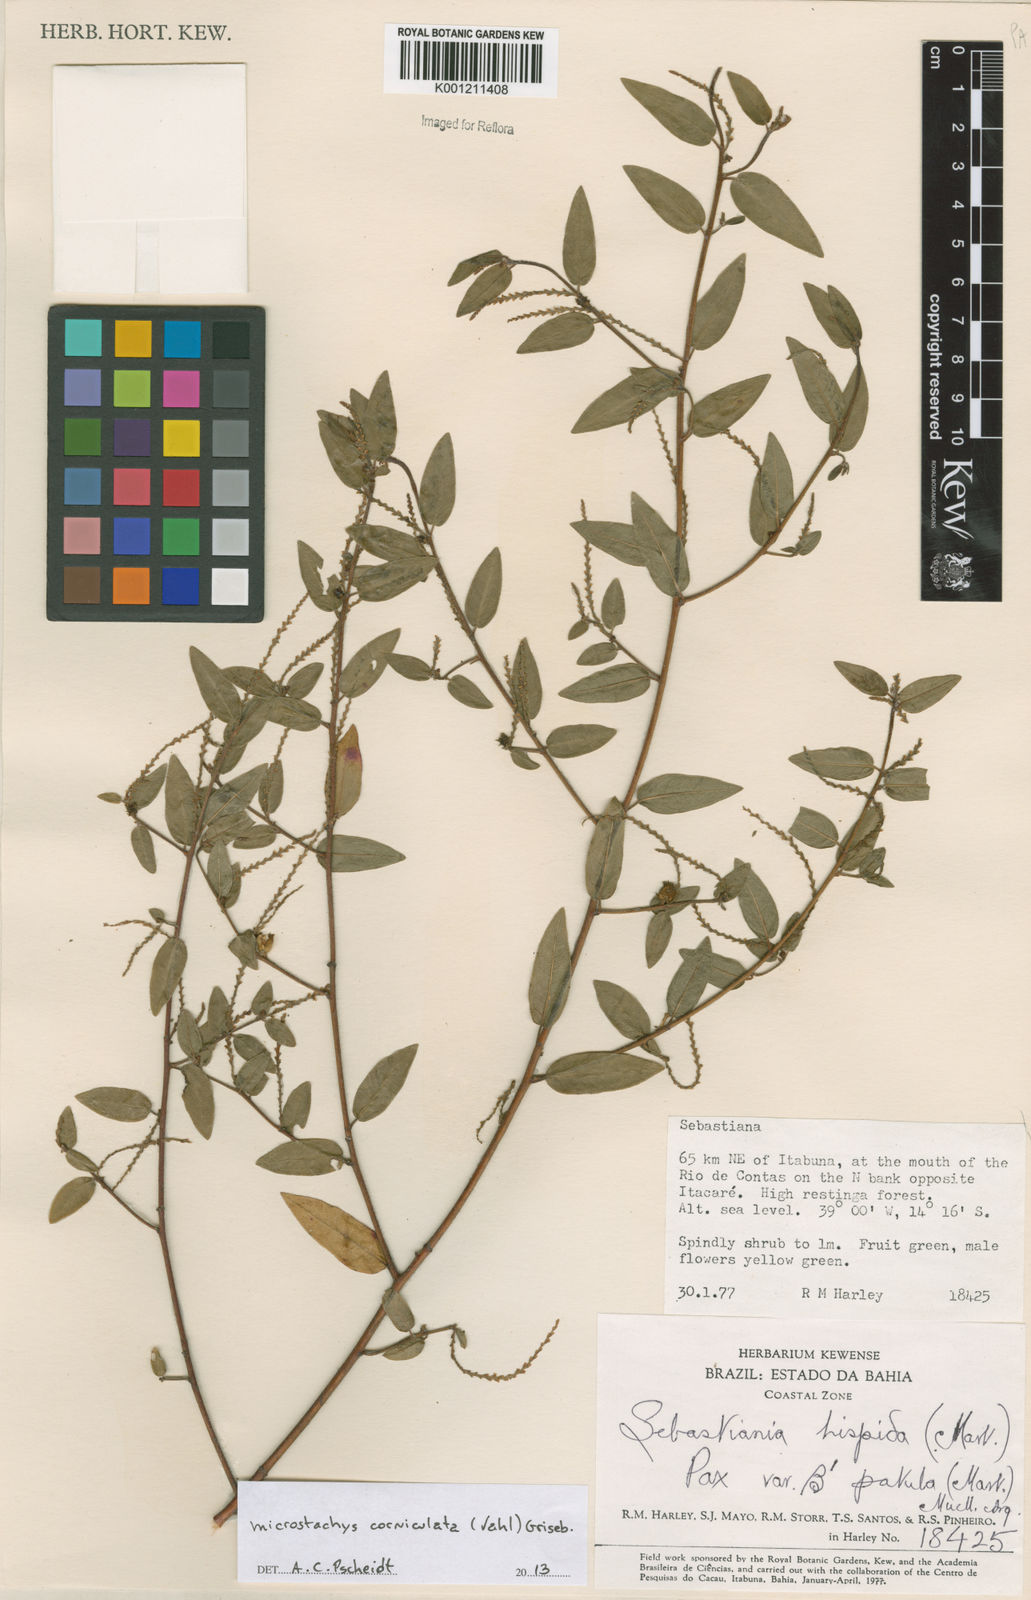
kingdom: Plantae
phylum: Tracheophyta
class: Magnoliopsida
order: Malpighiales
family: Euphorbiaceae
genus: Microstachys
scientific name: Microstachys corniculata
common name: Hato tejas
